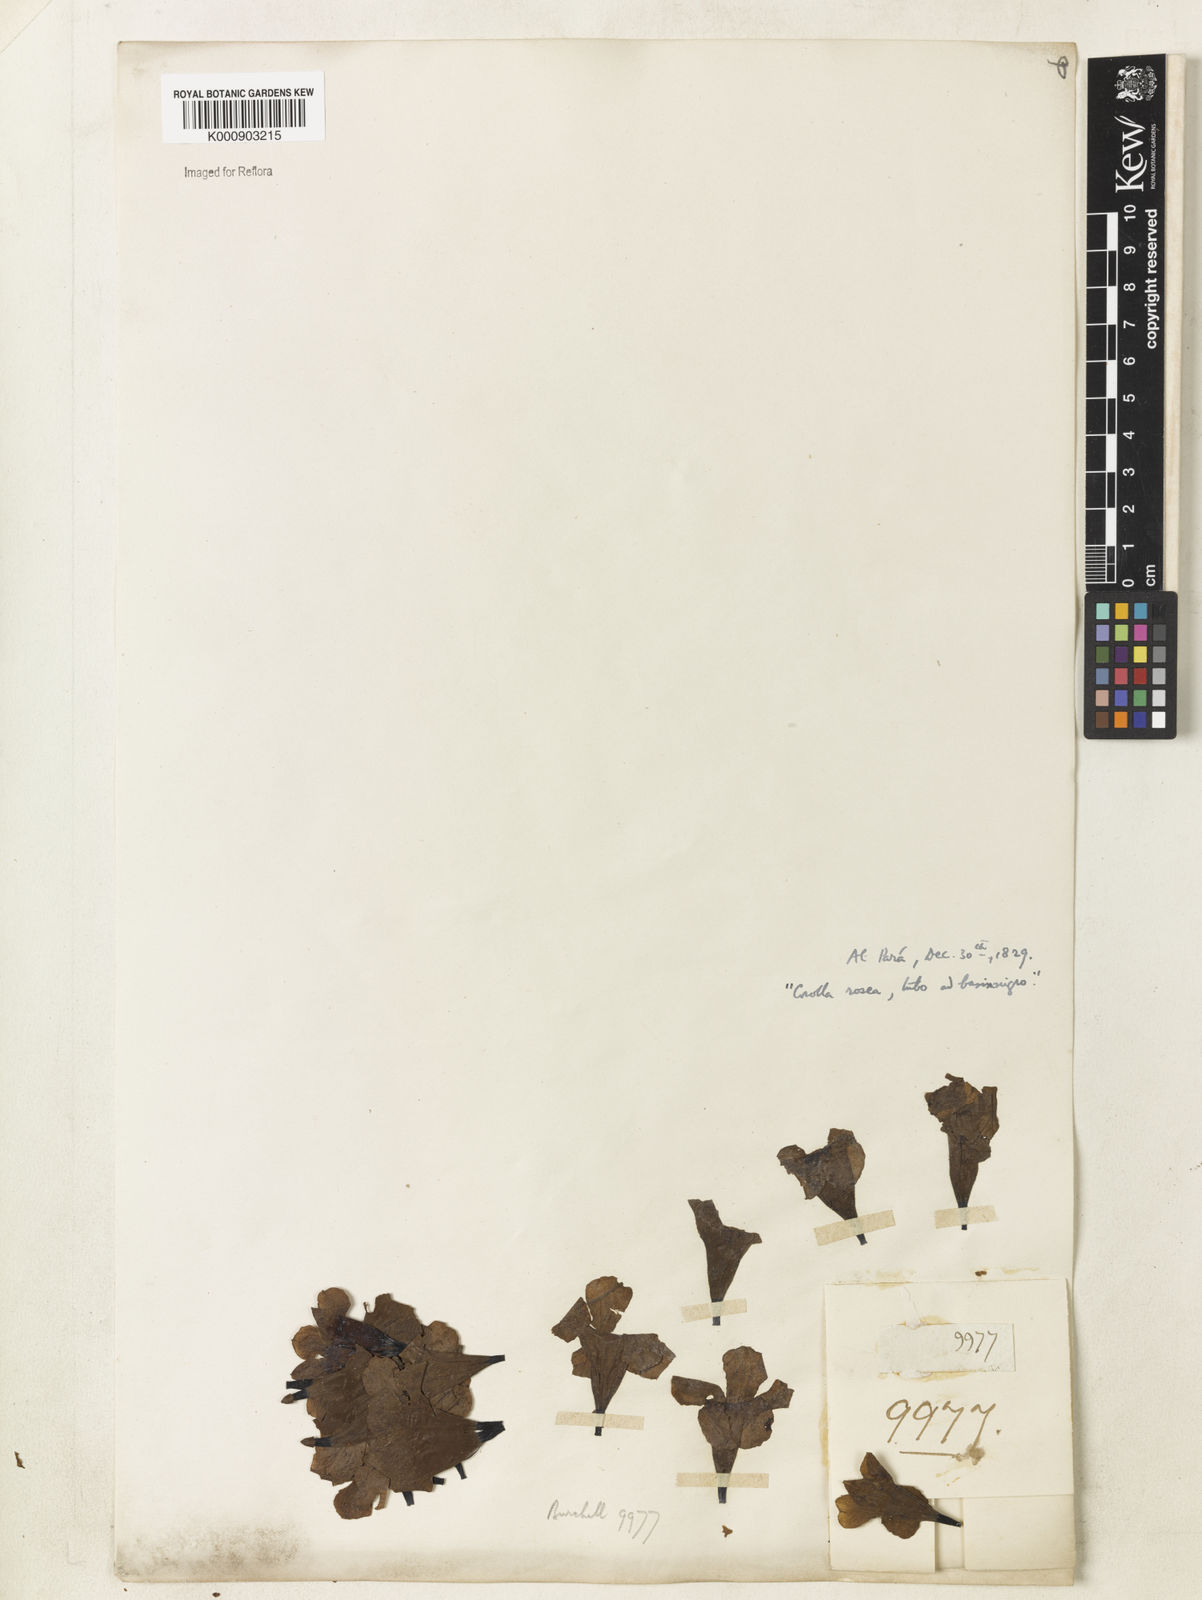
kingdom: Plantae
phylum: Tracheophyta
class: Magnoliopsida
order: Lamiales
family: Bignoniaceae
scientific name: Bignoniaceae
